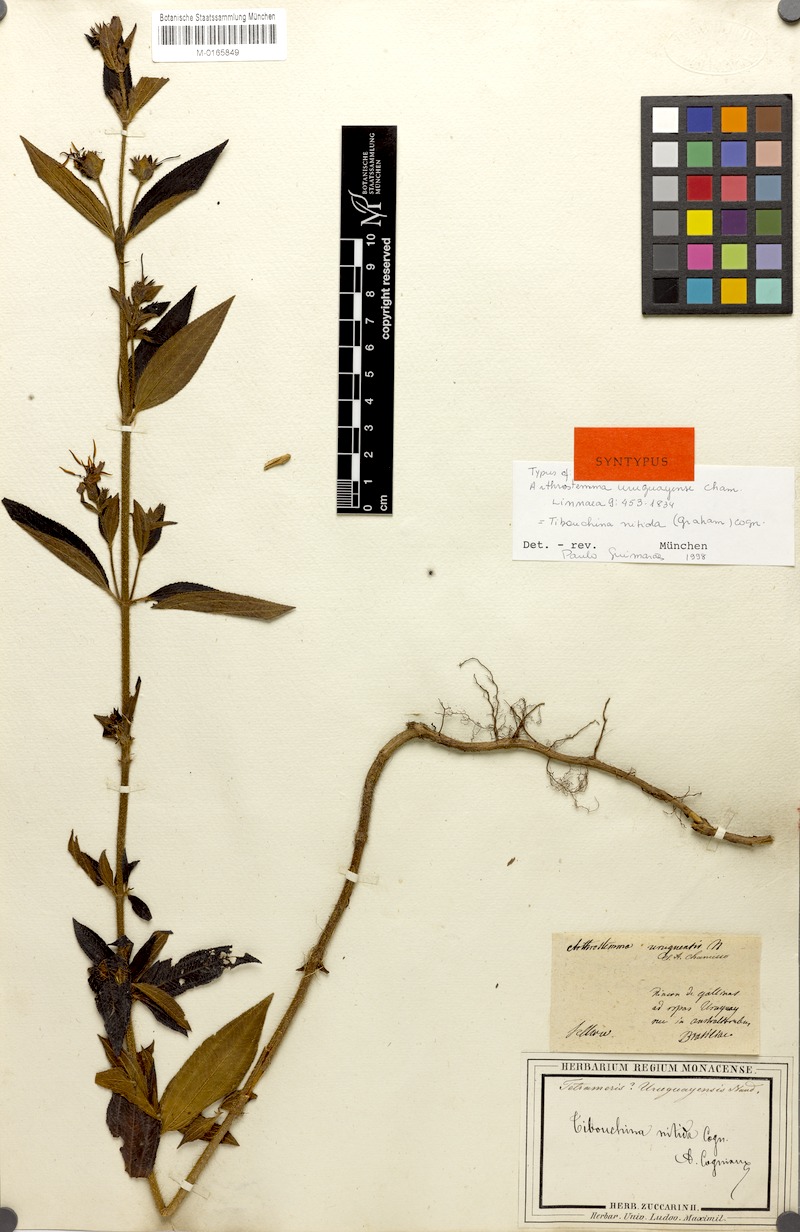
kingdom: Plantae
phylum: Tracheophyta
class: Magnoliopsida
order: Myrtales
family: Melastomataceae
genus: Chaetogastra
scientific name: Chaetogastra nitida
